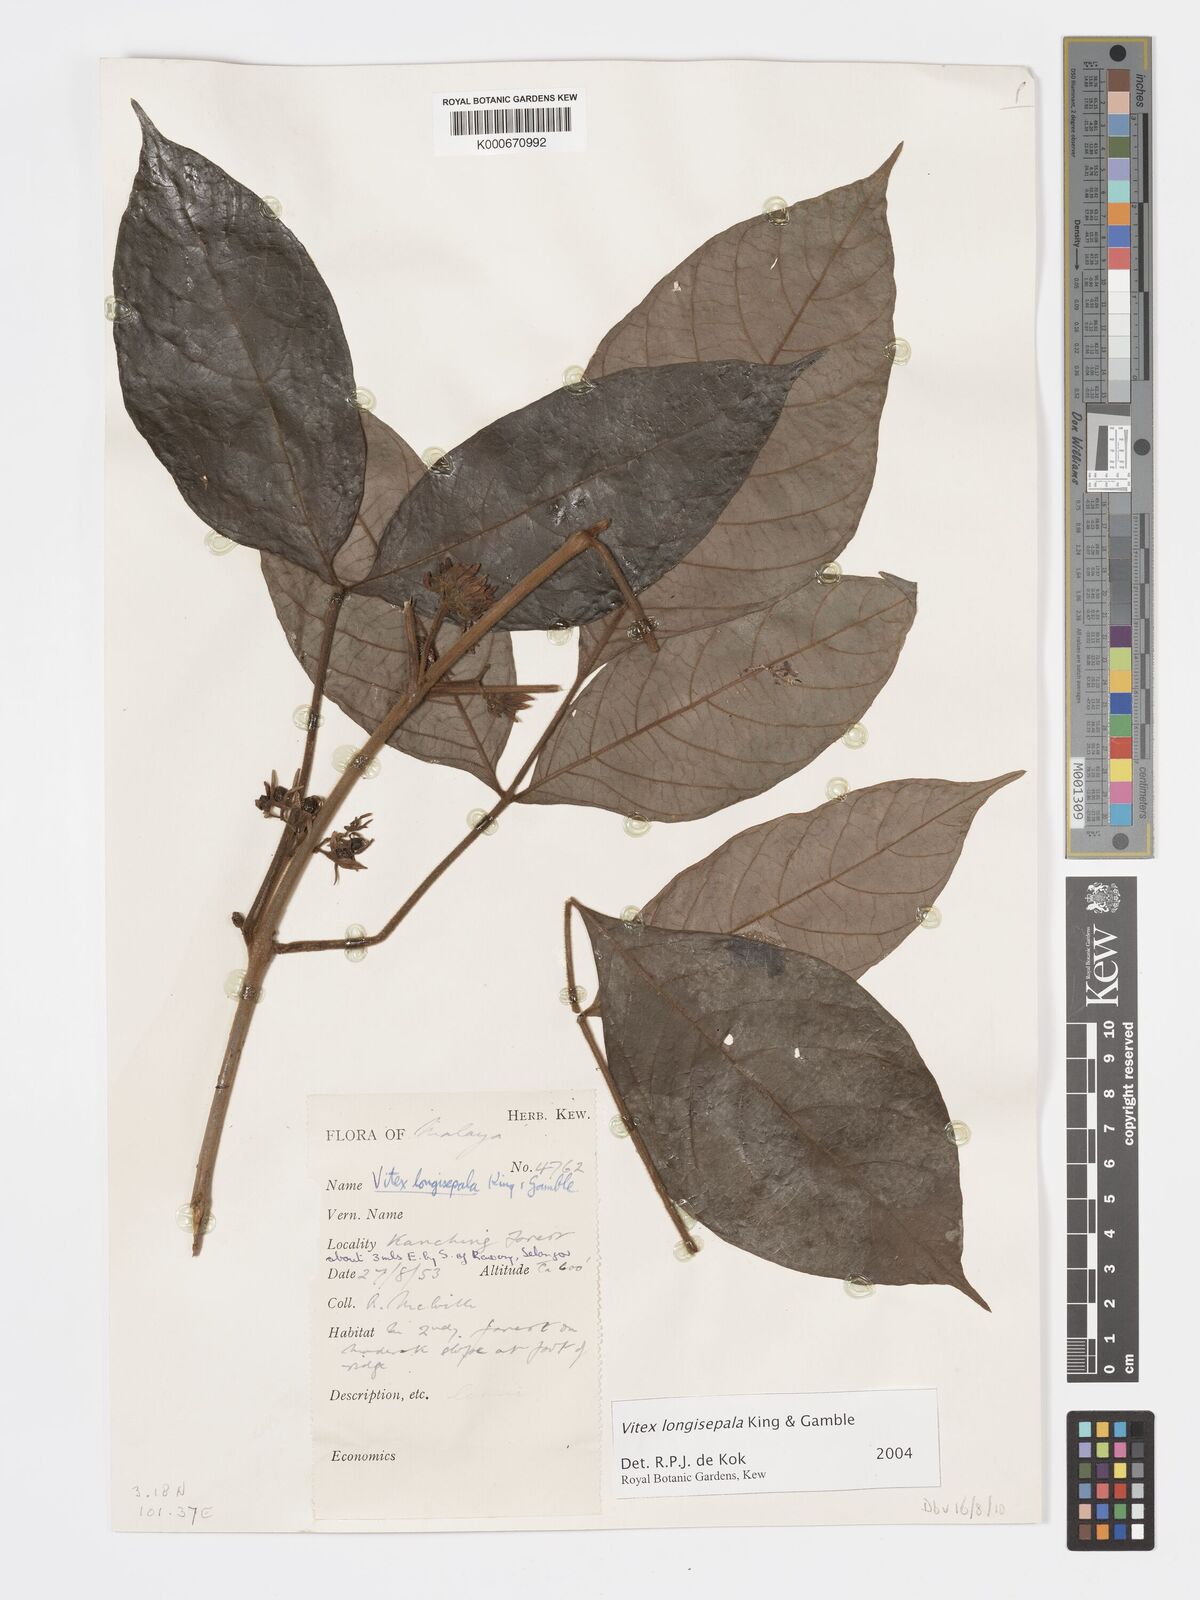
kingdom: Plantae
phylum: Tracheophyta
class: Magnoliopsida
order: Lamiales
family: Lamiaceae
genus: Vitex
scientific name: Vitex longisepala
